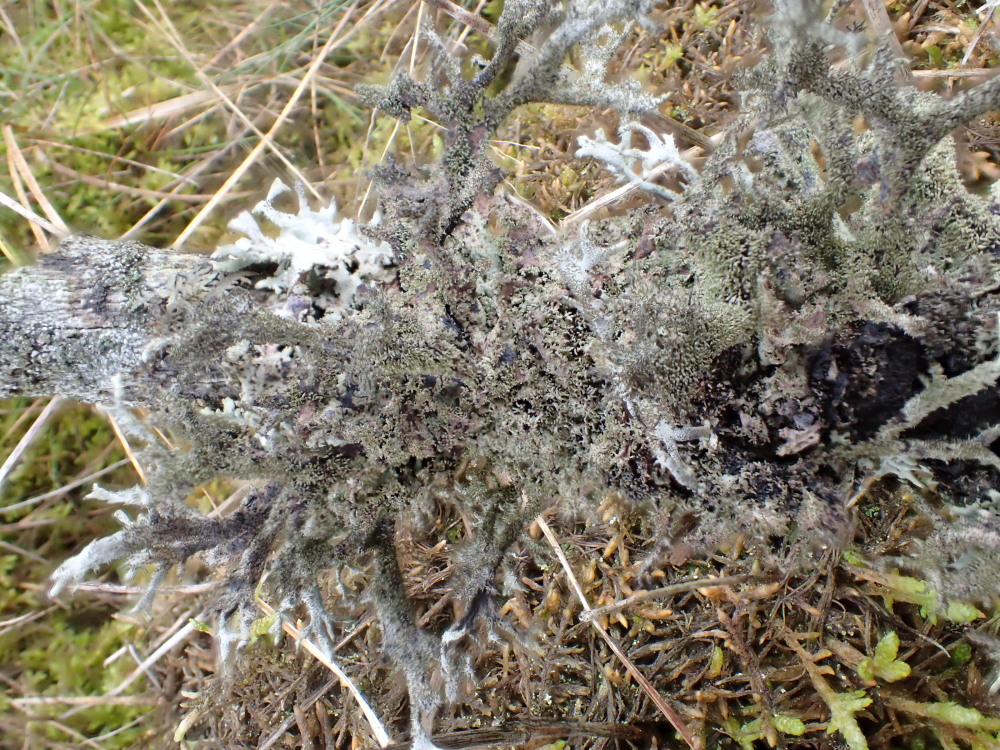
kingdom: Fungi
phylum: Ascomycota
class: Lecanoromycetes
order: Lecanorales
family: Parmeliaceae
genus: Pseudevernia
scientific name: Pseudevernia furfuracea
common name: grå fyrrelav
